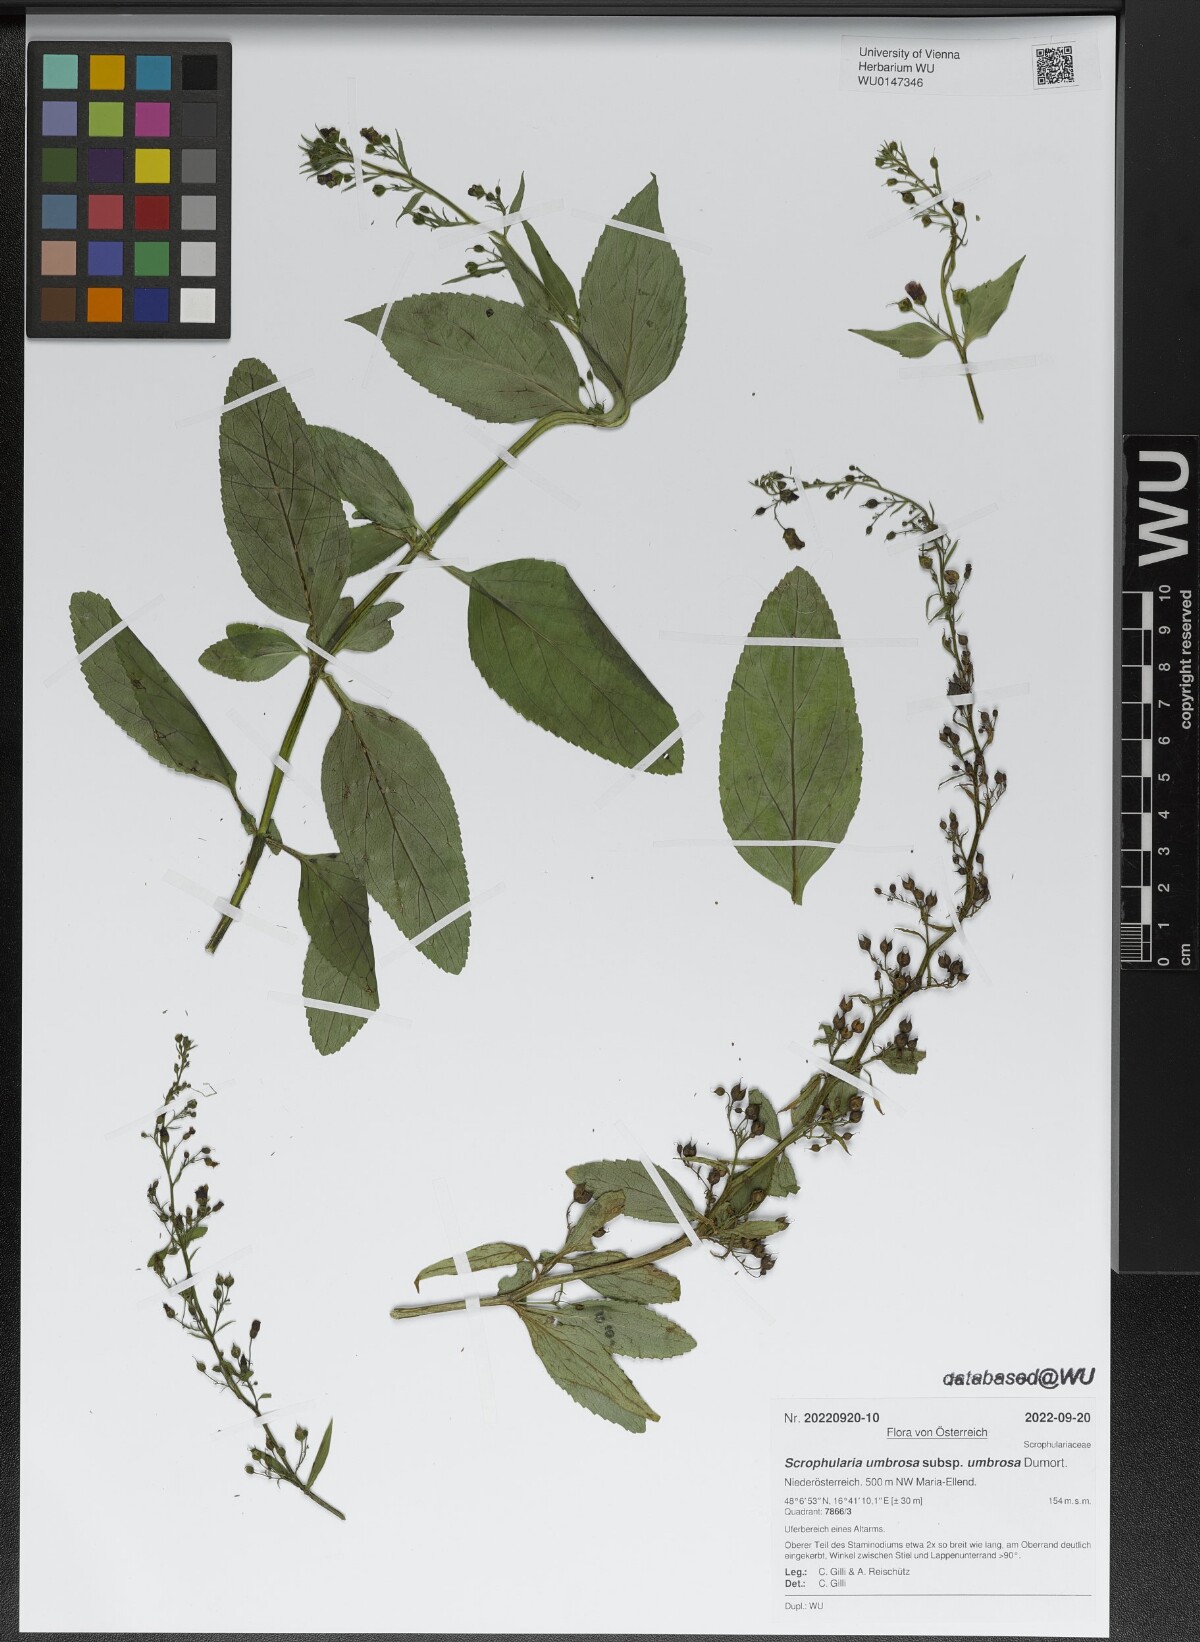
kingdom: Plantae
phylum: Tracheophyta
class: Magnoliopsida
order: Lamiales
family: Scrophulariaceae
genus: Scrophularia
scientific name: Scrophularia umbrosa
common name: Green figwort
